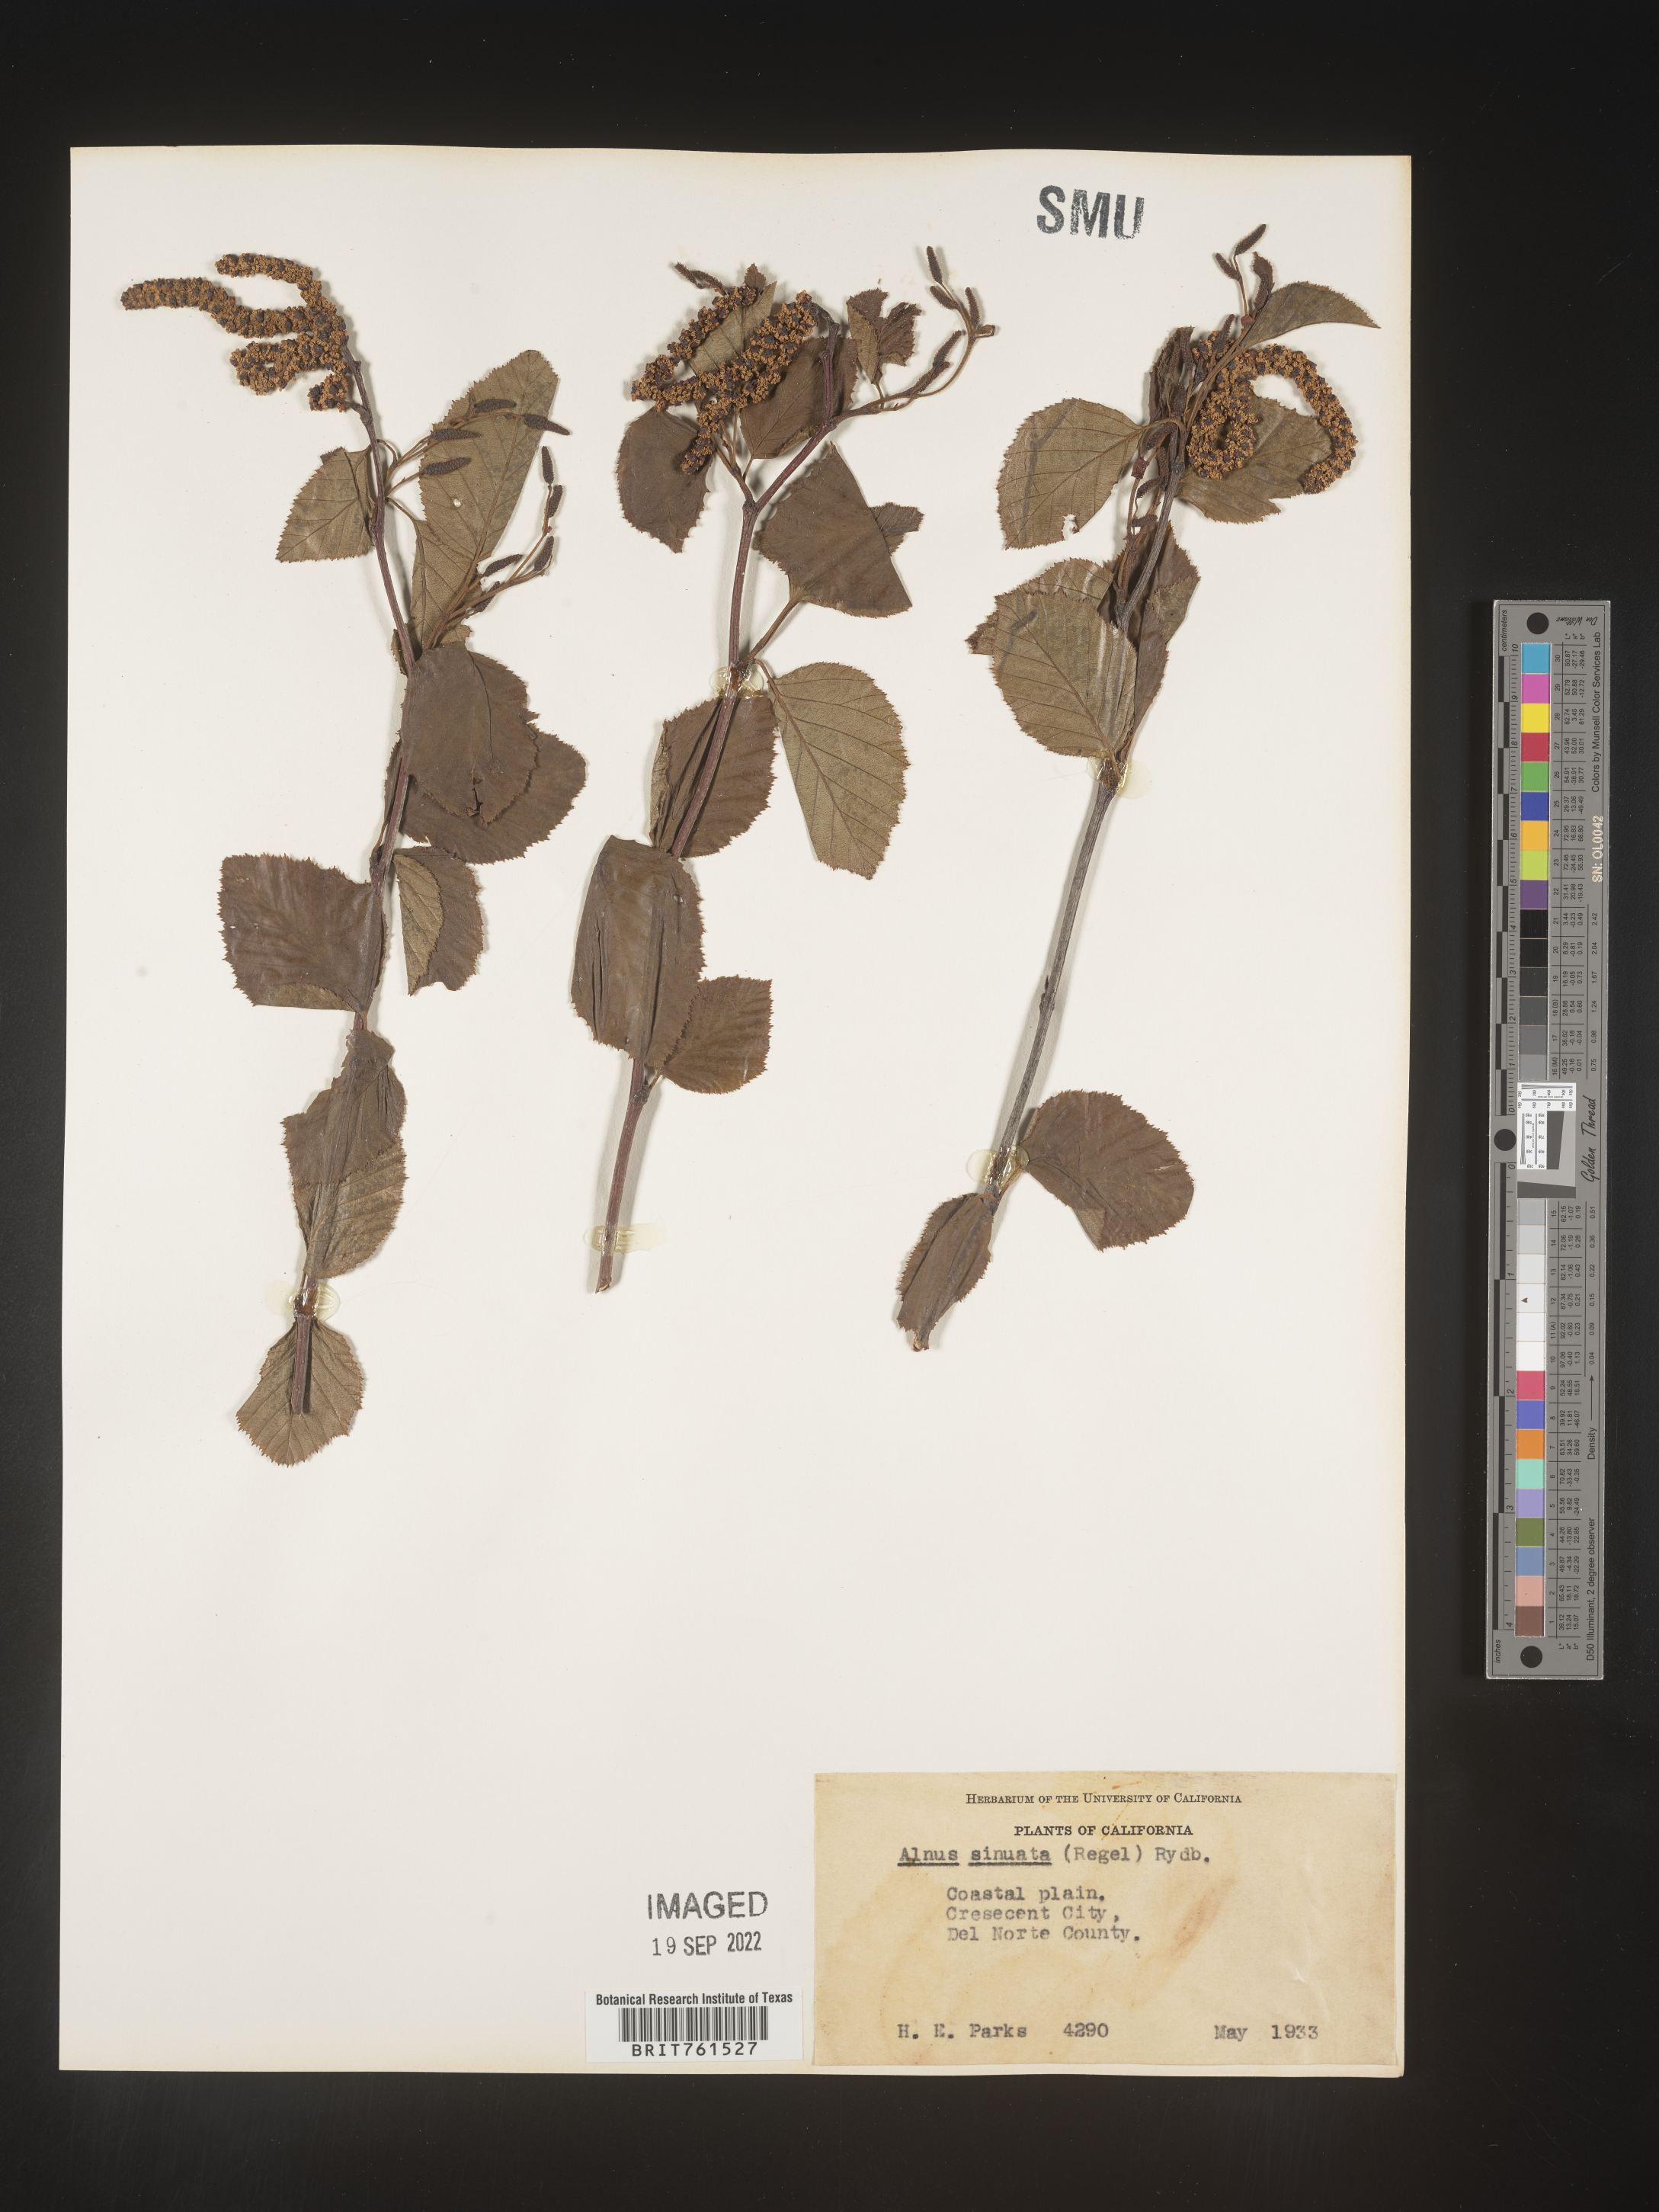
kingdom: Plantae
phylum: Tracheophyta
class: Magnoliopsida
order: Fagales
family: Betulaceae
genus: Alnus
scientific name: Alnus alnobetula
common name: Green alder
